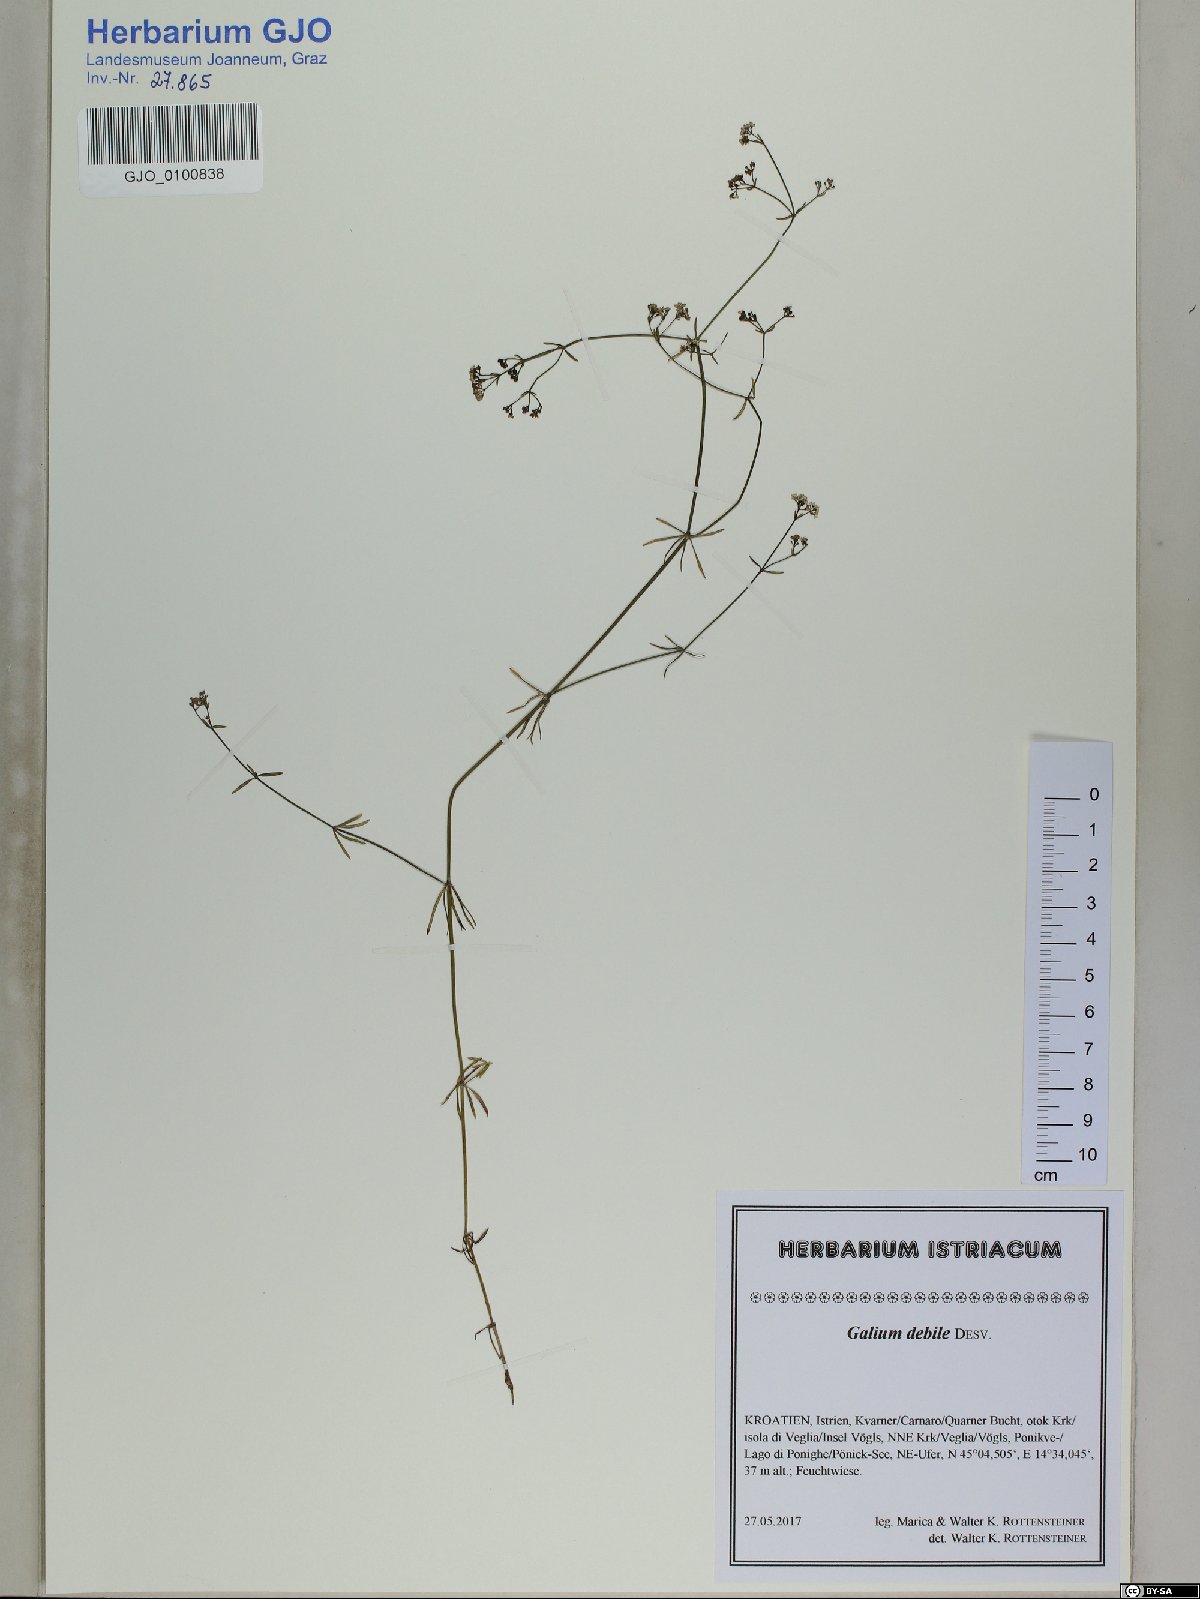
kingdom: Plantae
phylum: Tracheophyta
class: Magnoliopsida
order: Gentianales
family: Rubiaceae
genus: Galium
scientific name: Galium debile
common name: Slender marsh-bedstraw
